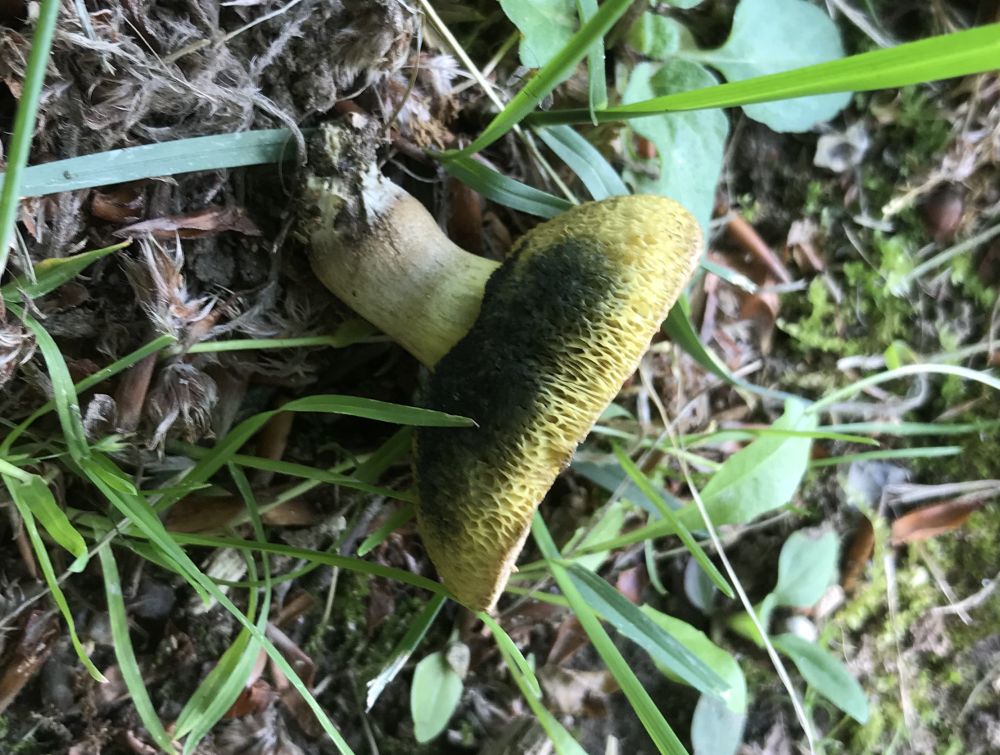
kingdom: Fungi
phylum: Basidiomycota
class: Agaricomycetes
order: Boletales
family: Boletaceae
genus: Xerocomellus
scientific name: Xerocomellus porosporus
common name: hvidsprukken rørhat
